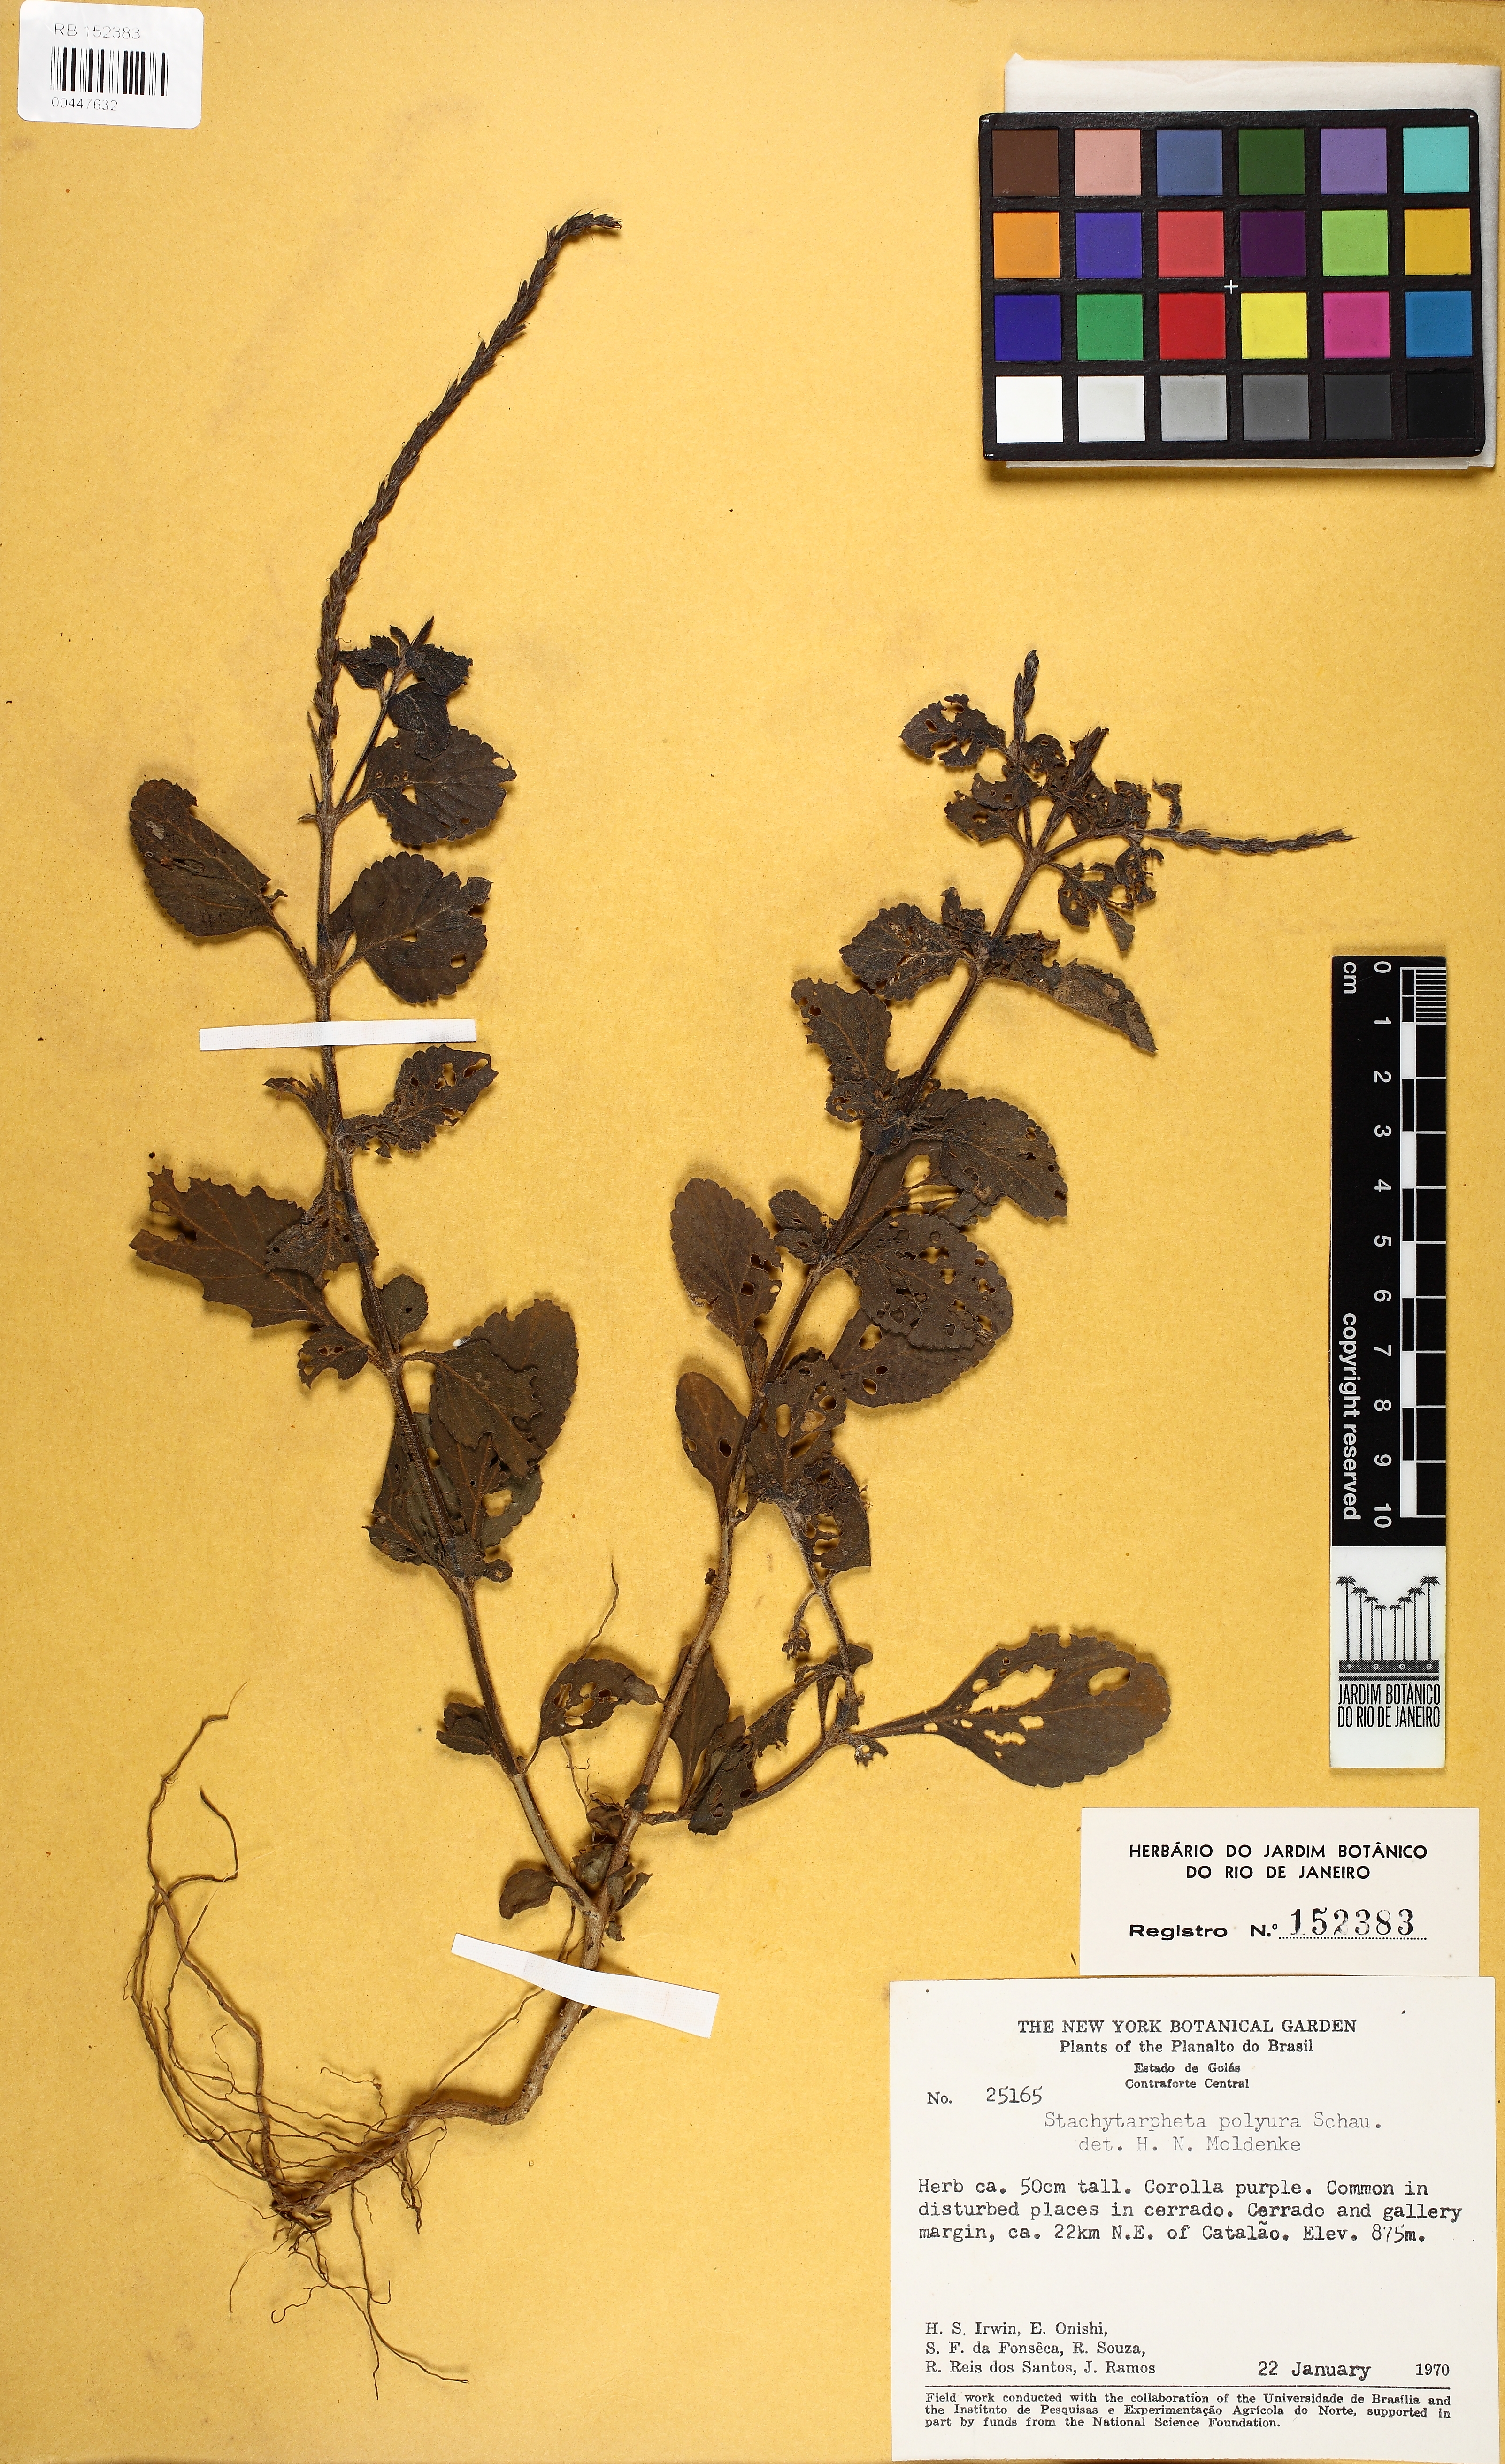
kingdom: Plantae
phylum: Tracheophyta
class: Magnoliopsida
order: Lamiales
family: Verbenaceae
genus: Stachytarpheta
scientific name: Stachytarpheta cayennensis
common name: Cayenne porterweed
